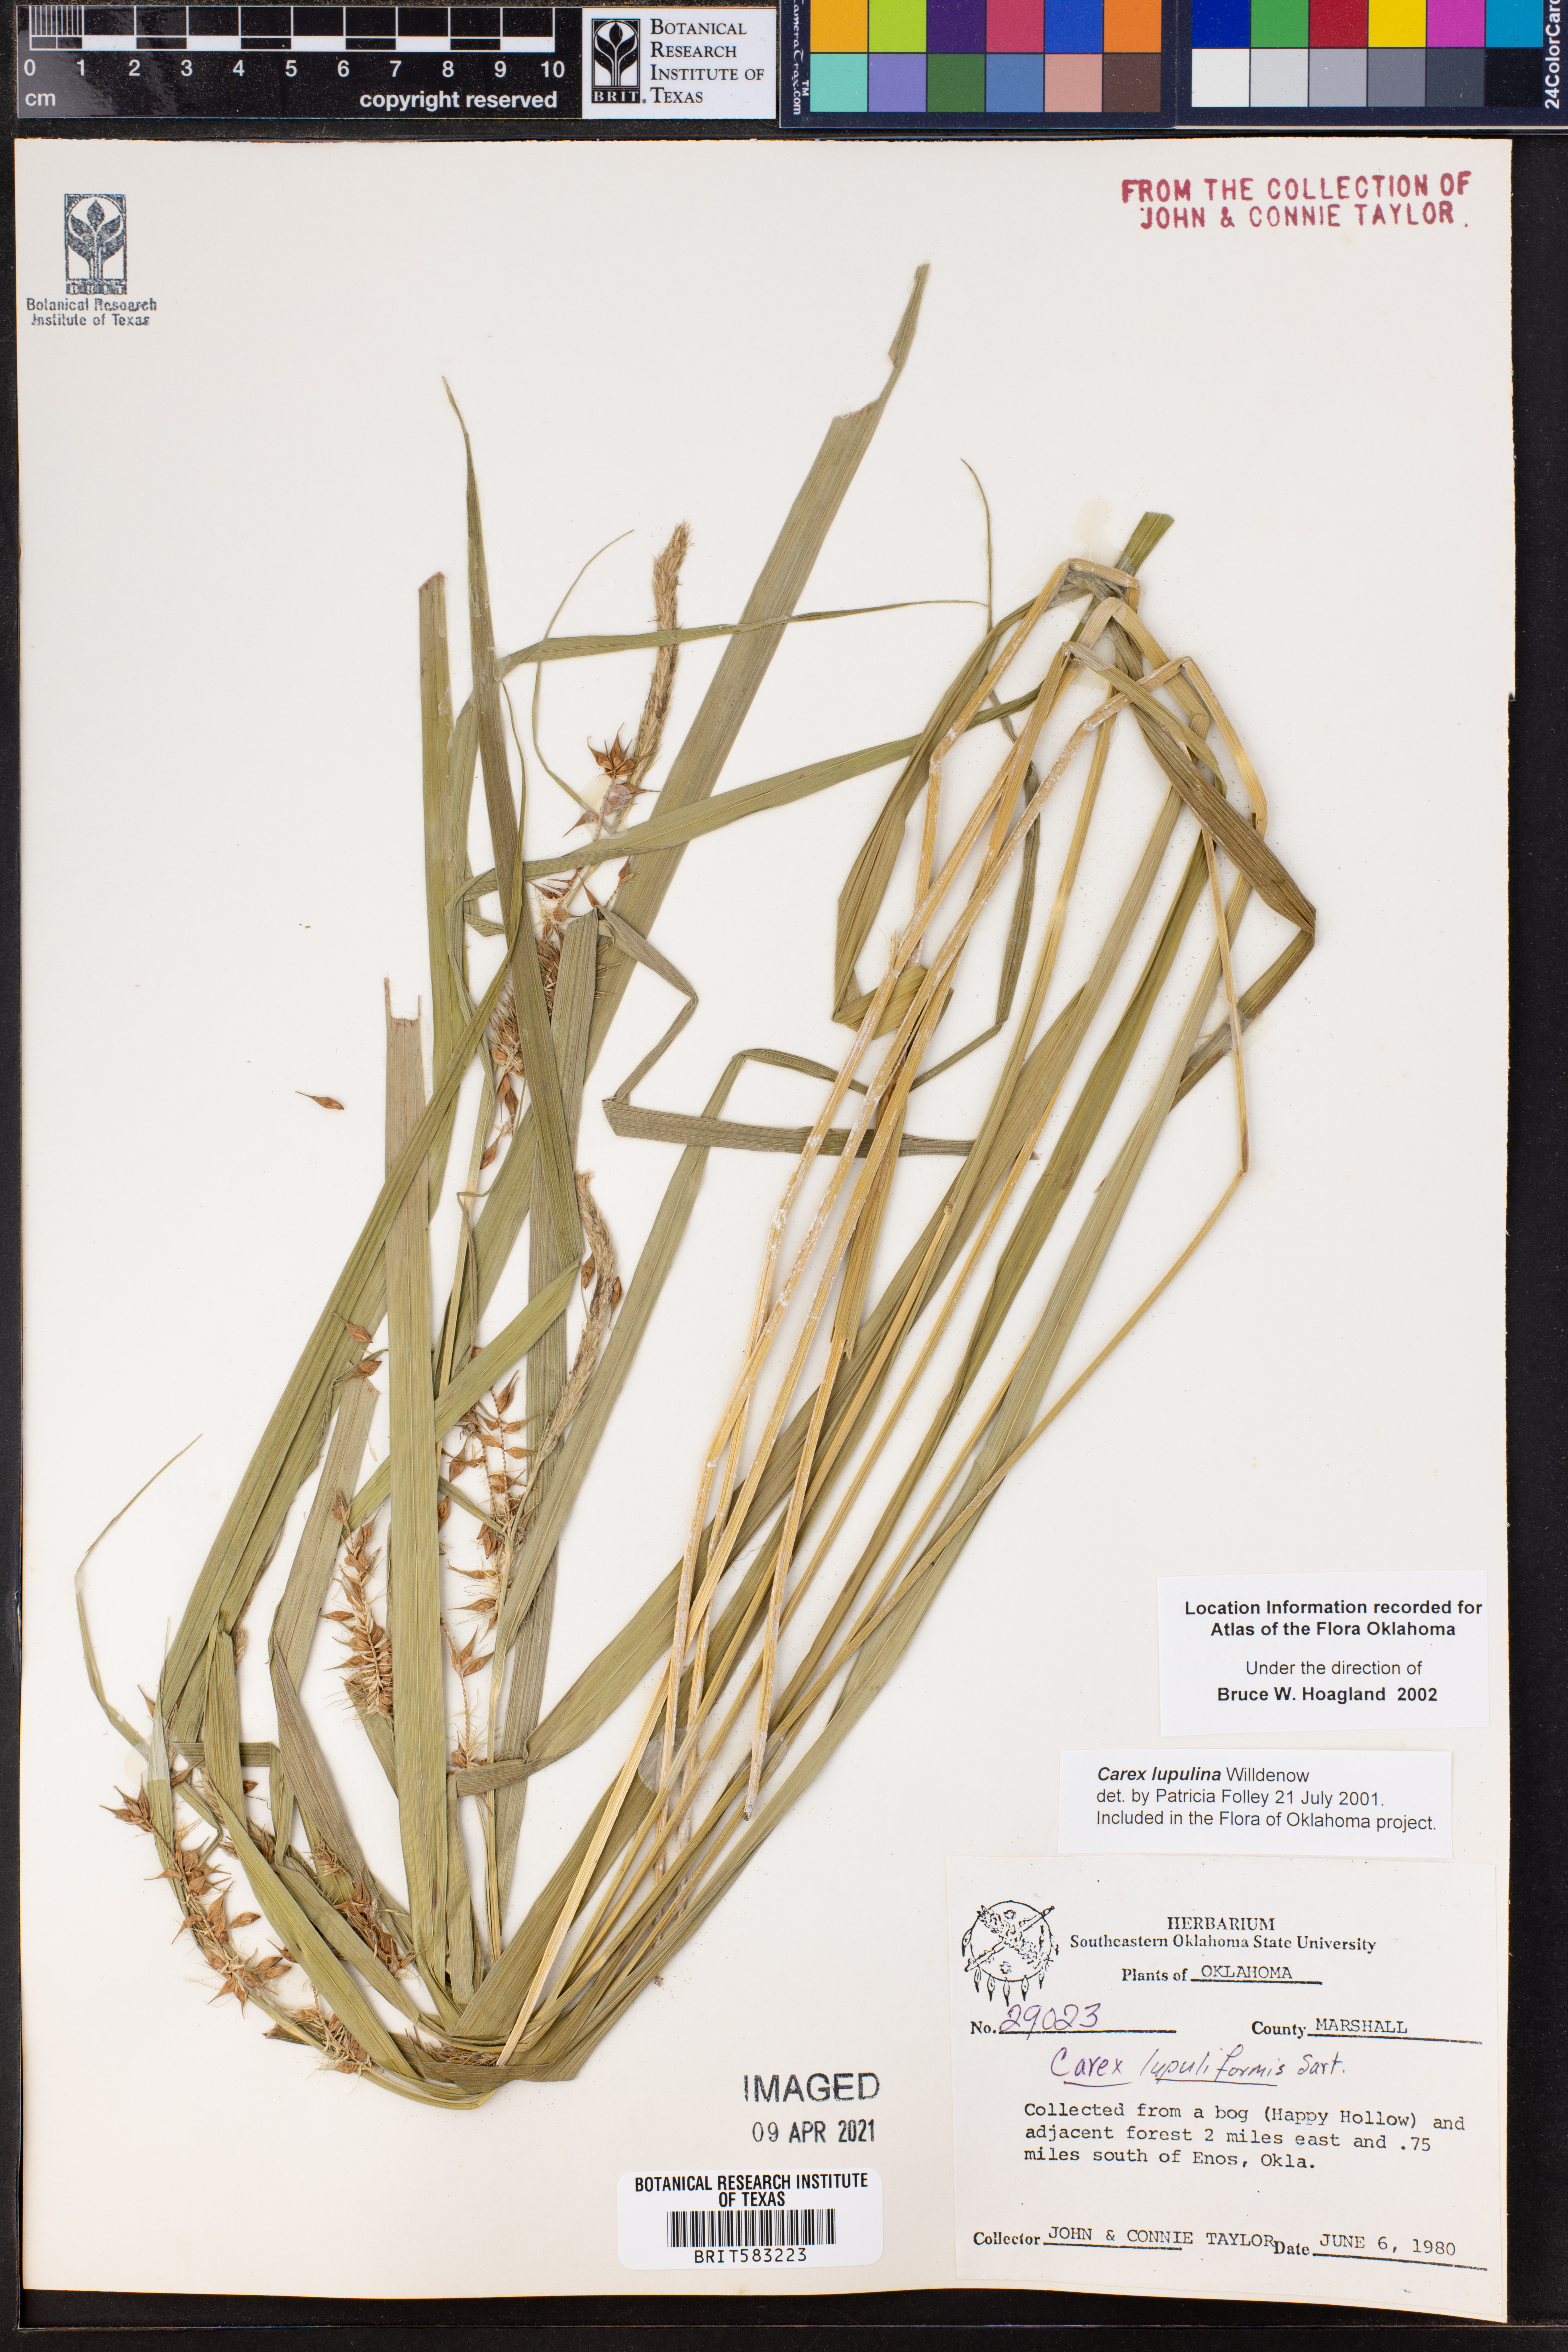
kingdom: Plantae
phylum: Tracheophyta
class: Liliopsida
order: Poales
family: Cyperaceae
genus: Carex
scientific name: Carex lupulina
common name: Hop sedge
